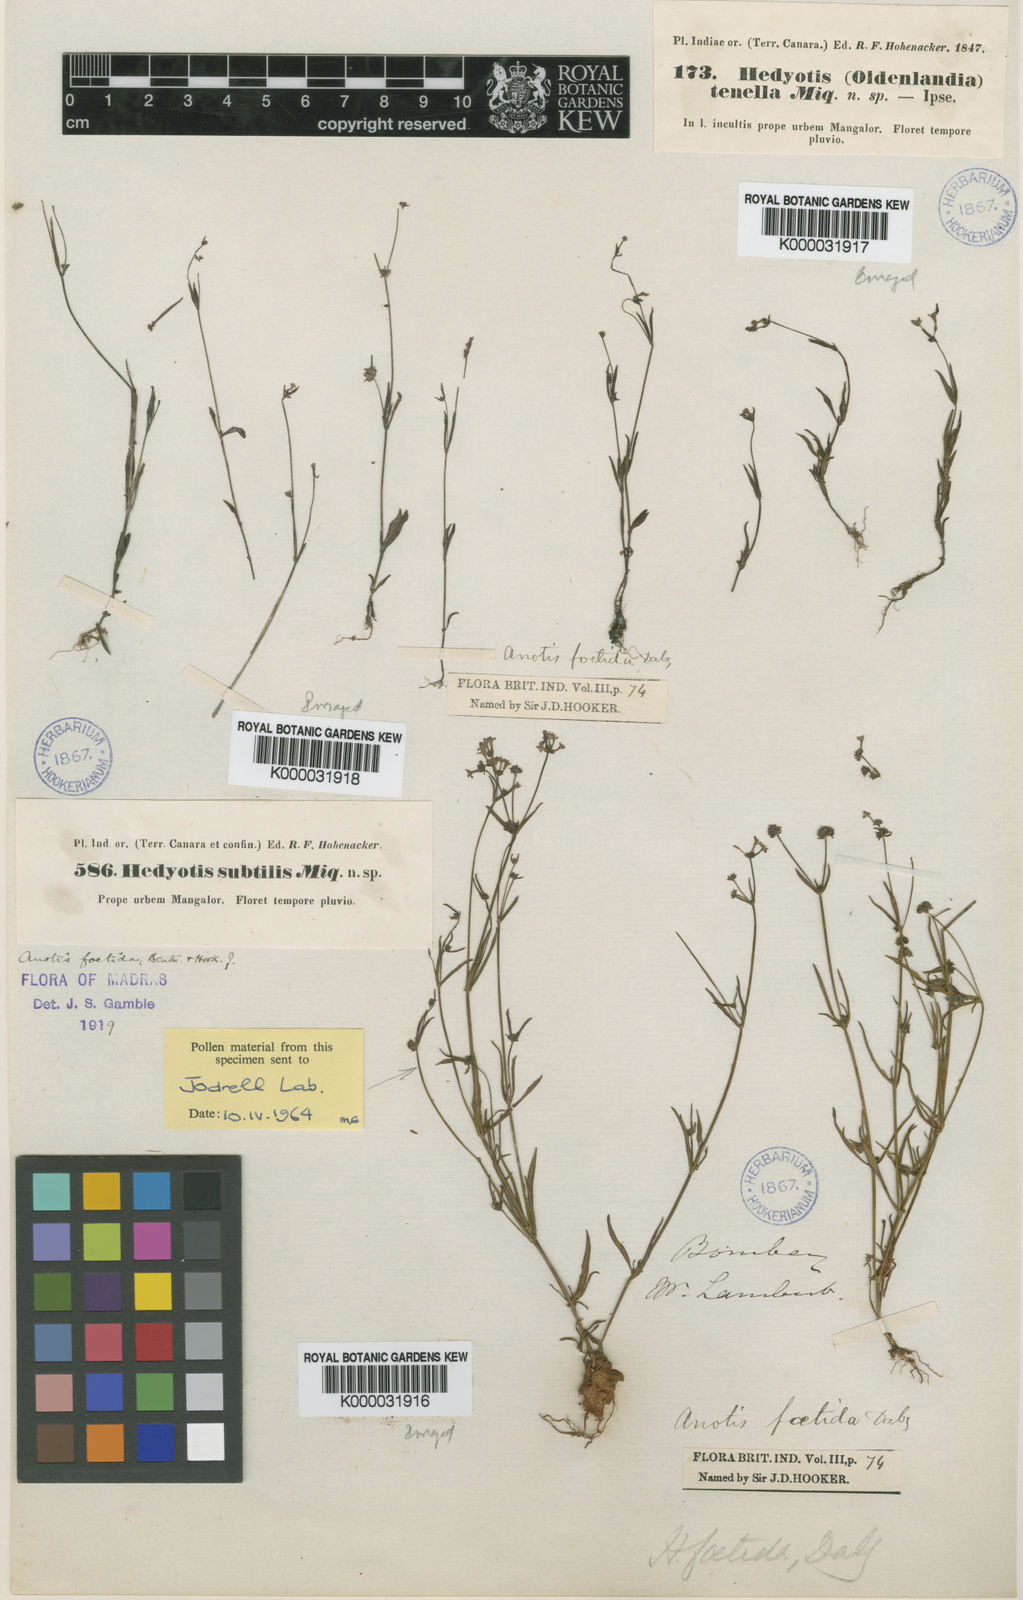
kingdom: Plantae
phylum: Tracheophyta
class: Magnoliopsida
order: Gentianales
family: Rubiaceae
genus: Neanotis
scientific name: Neanotis carnosa
